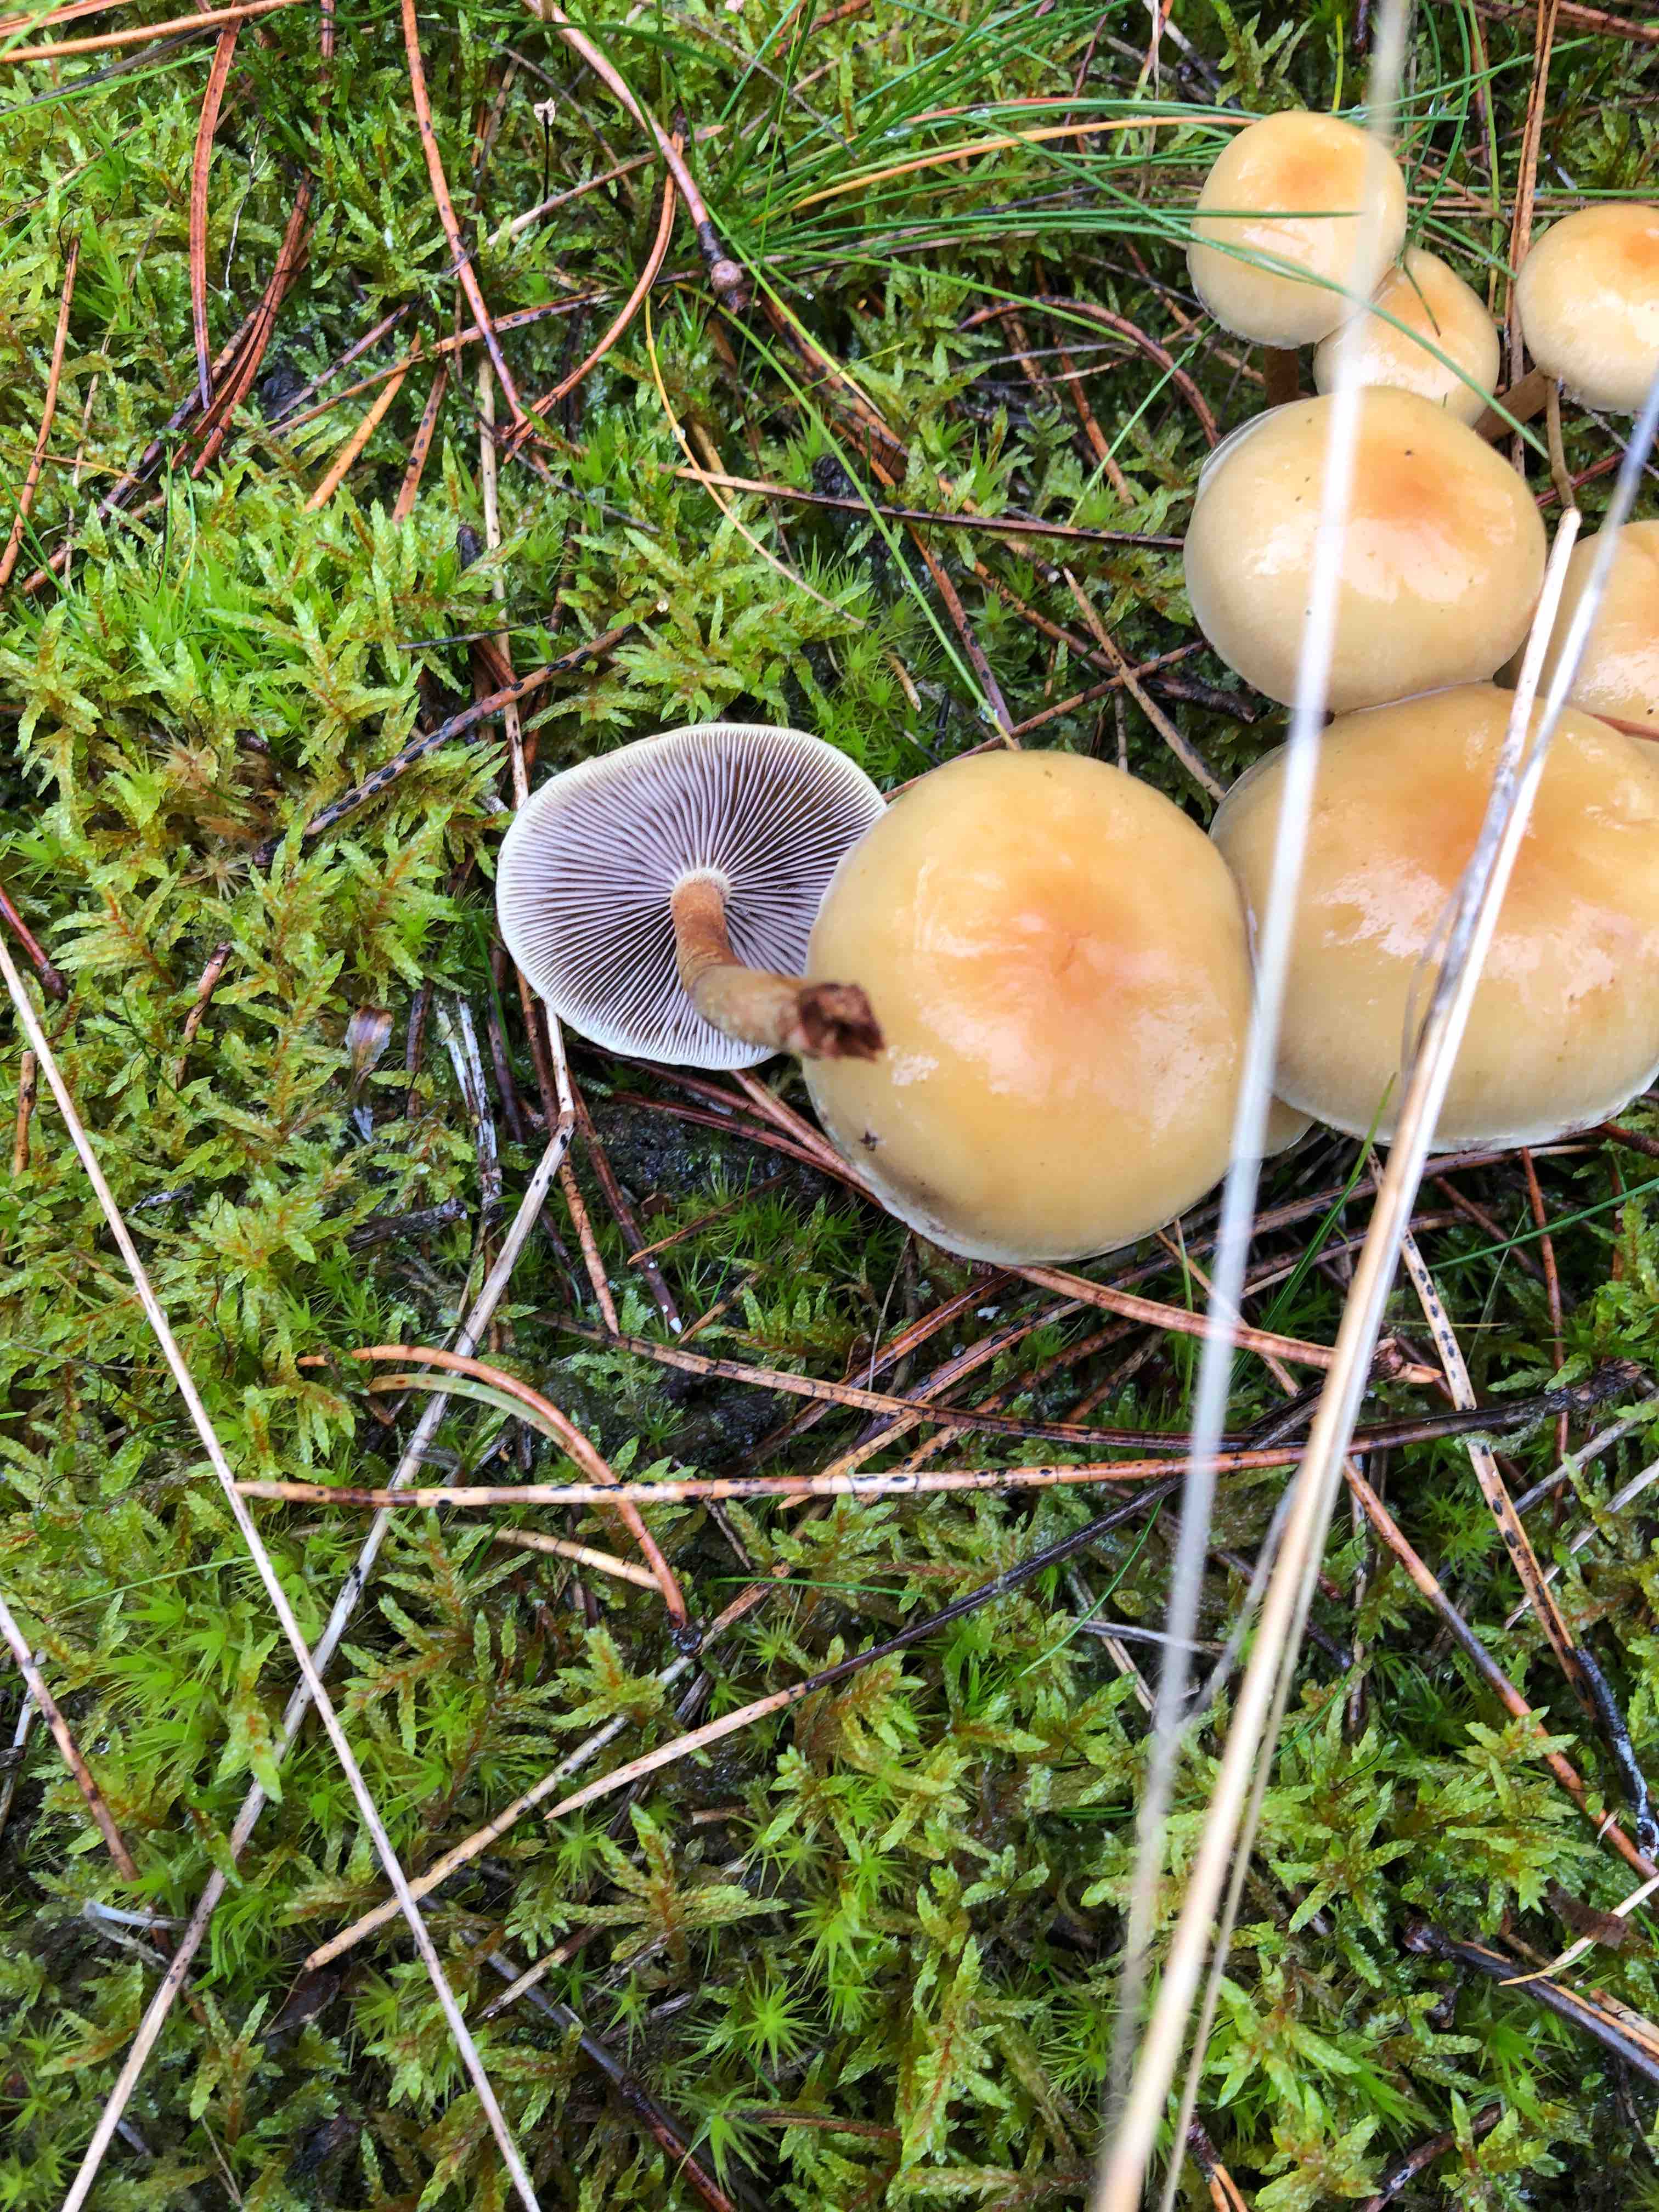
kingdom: Fungi
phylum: Basidiomycota
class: Agaricomycetes
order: Agaricales
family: Strophariaceae
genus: Hypholoma
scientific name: Hypholoma capnoides
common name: gran-svovlhat
